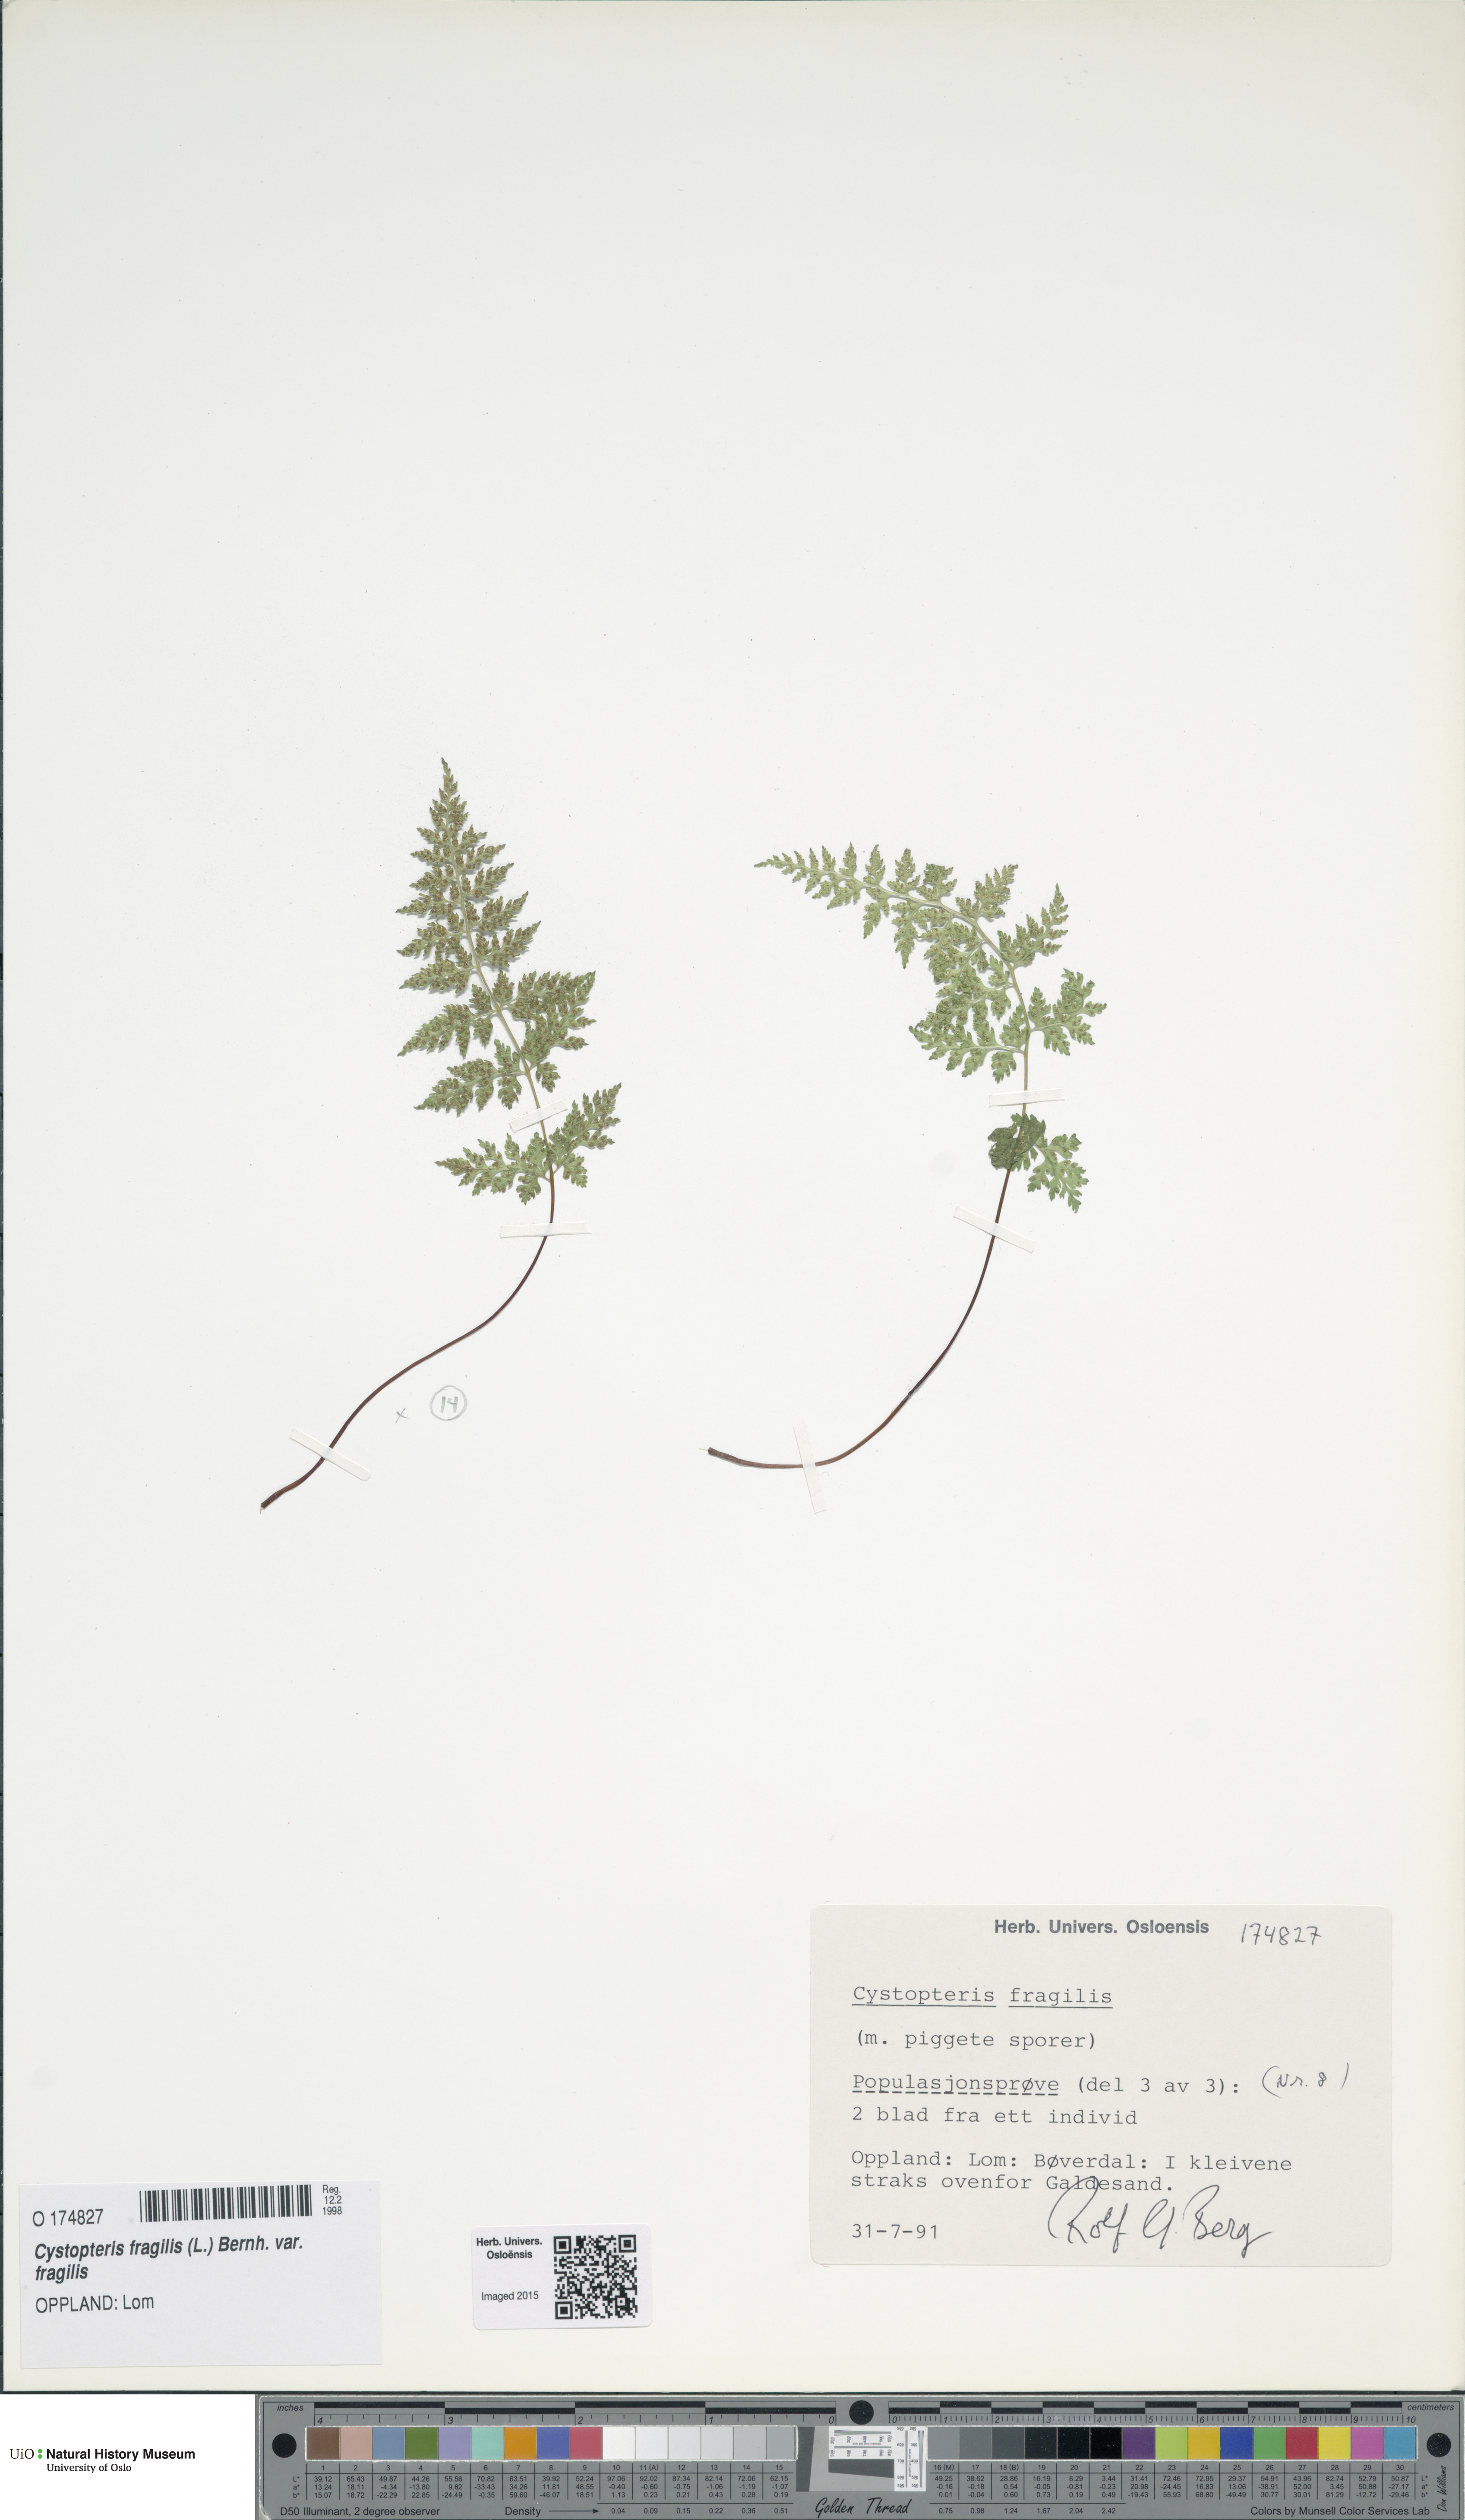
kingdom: Plantae
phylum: Tracheophyta
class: Polypodiopsida
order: Polypodiales
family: Cystopteridaceae
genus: Cystopteris
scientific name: Cystopteris fragilis
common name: Brittle bladder fern
